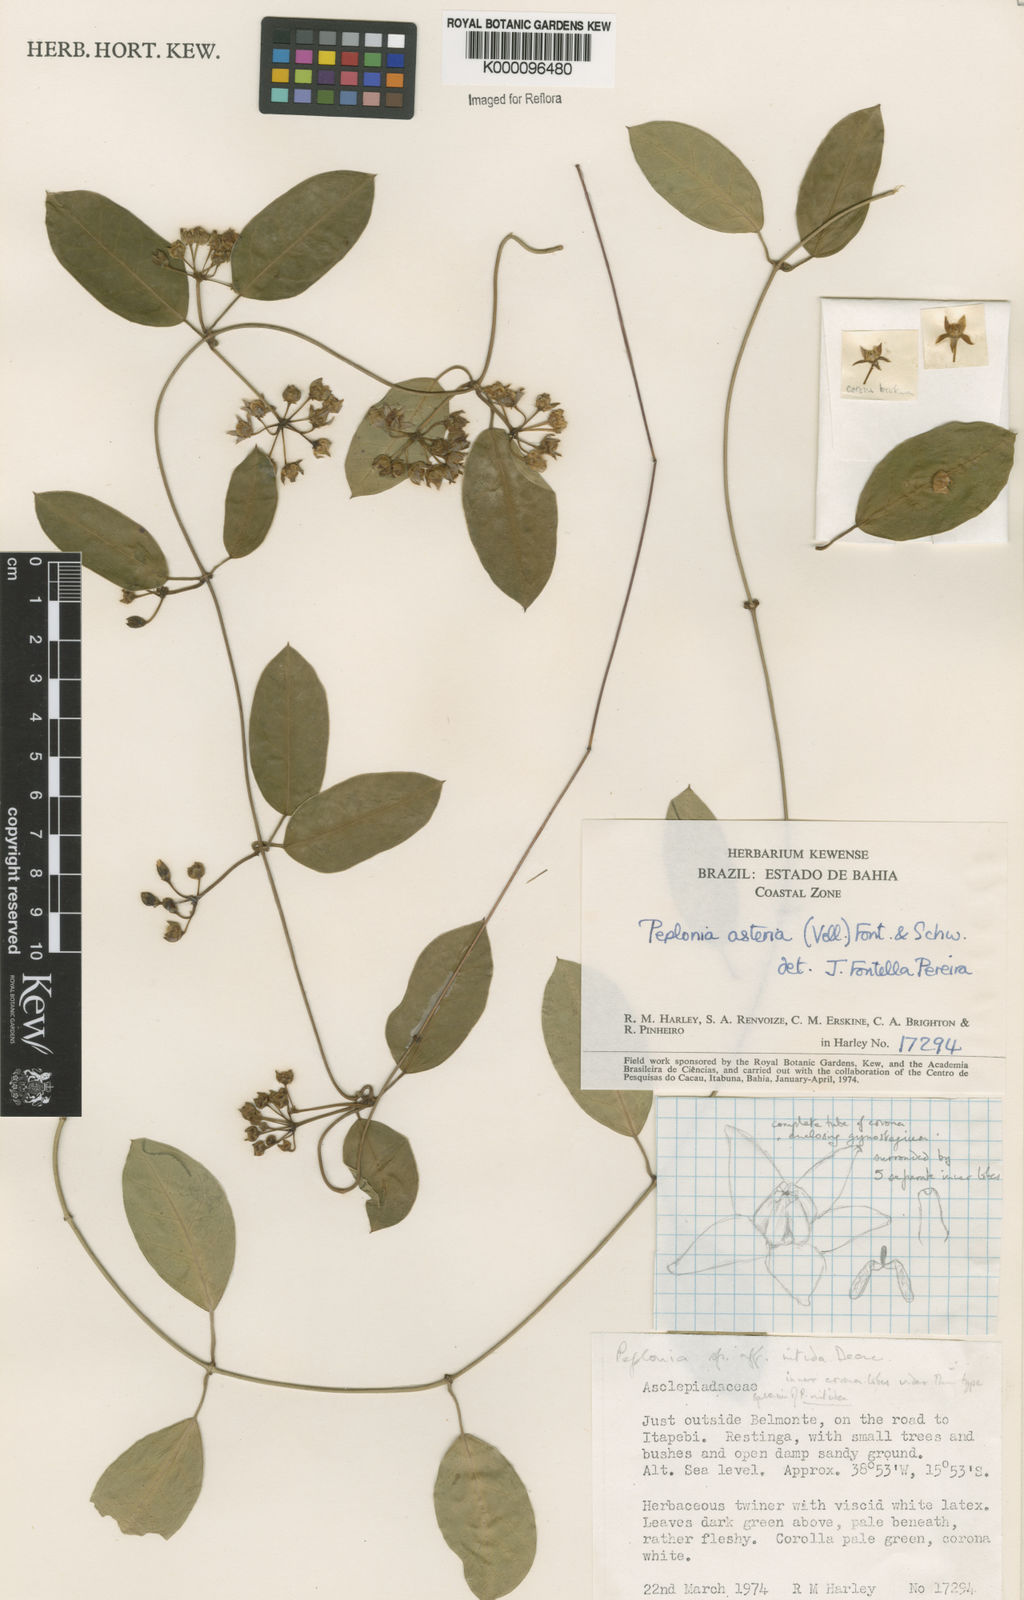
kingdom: Plantae
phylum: Tracheophyta
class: Magnoliopsida
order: Gentianales
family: Apocynaceae
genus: Peplonia
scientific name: Peplonia asteria
